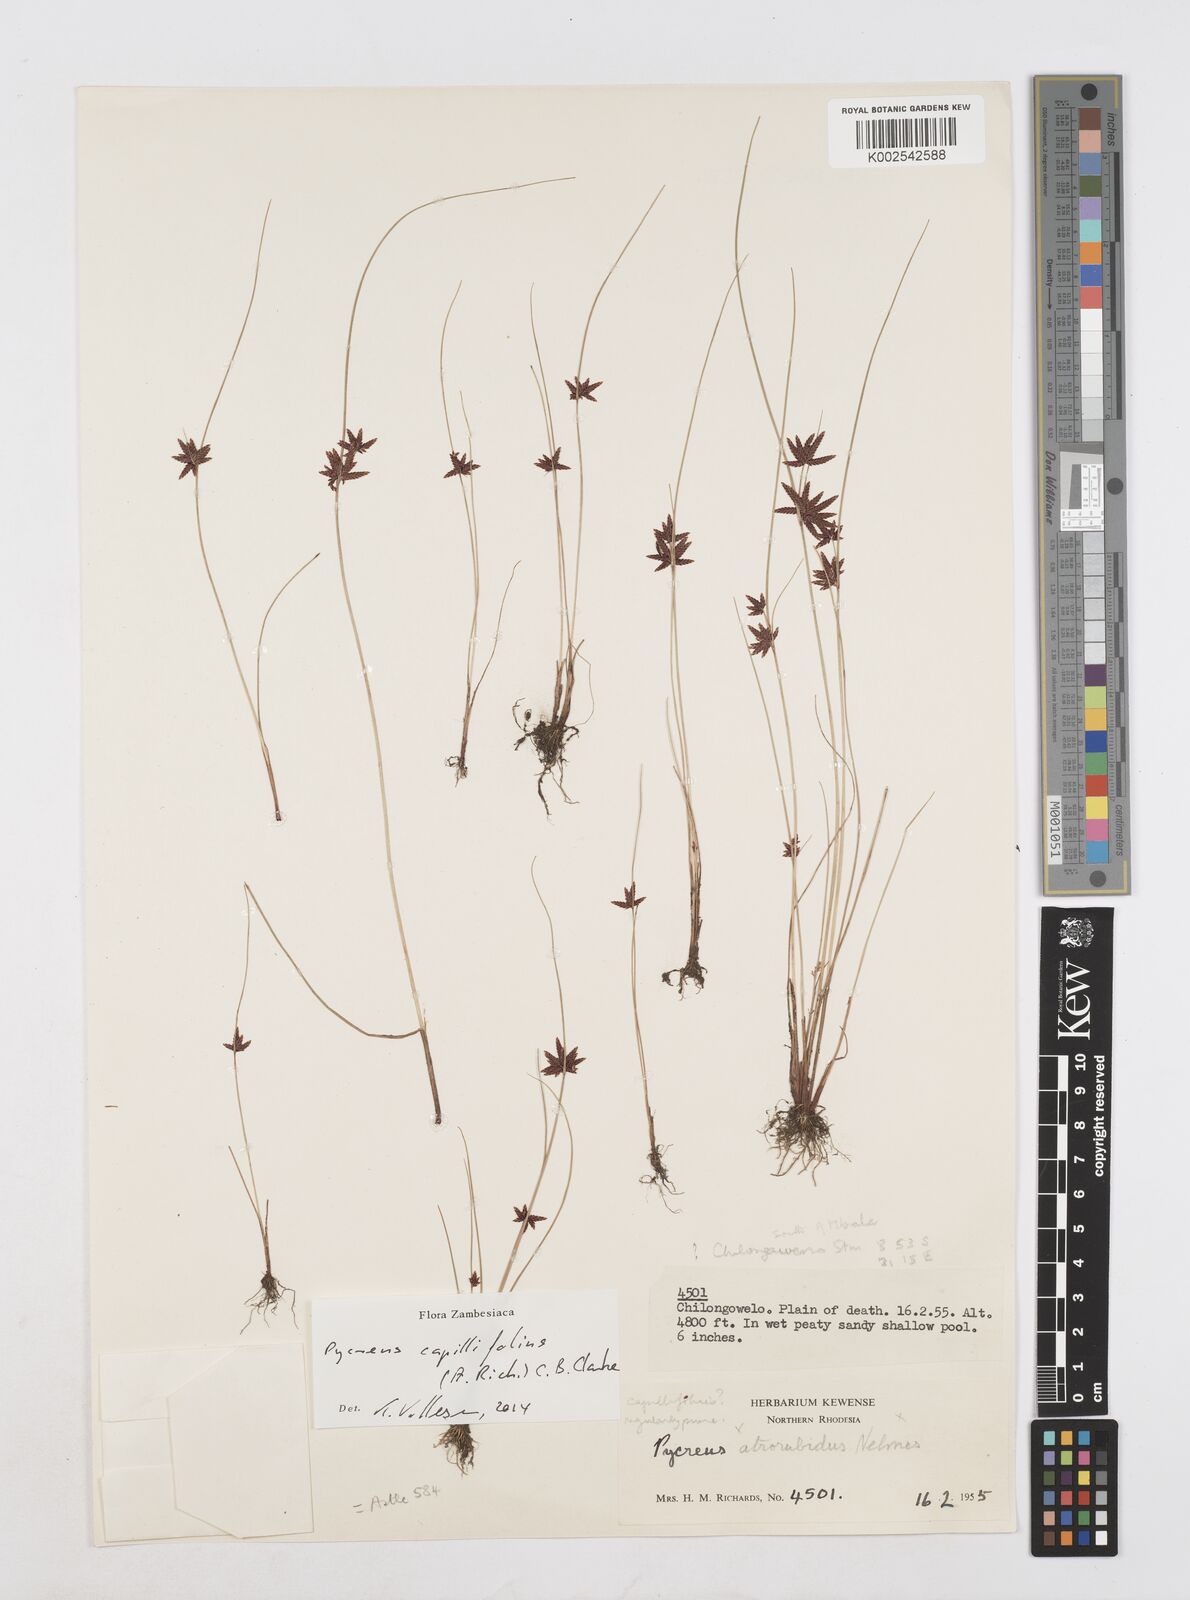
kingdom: Plantae
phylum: Tracheophyta
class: Liliopsida
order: Poales
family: Cyperaceae
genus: Cyperus
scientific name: Cyperus capillifolius
